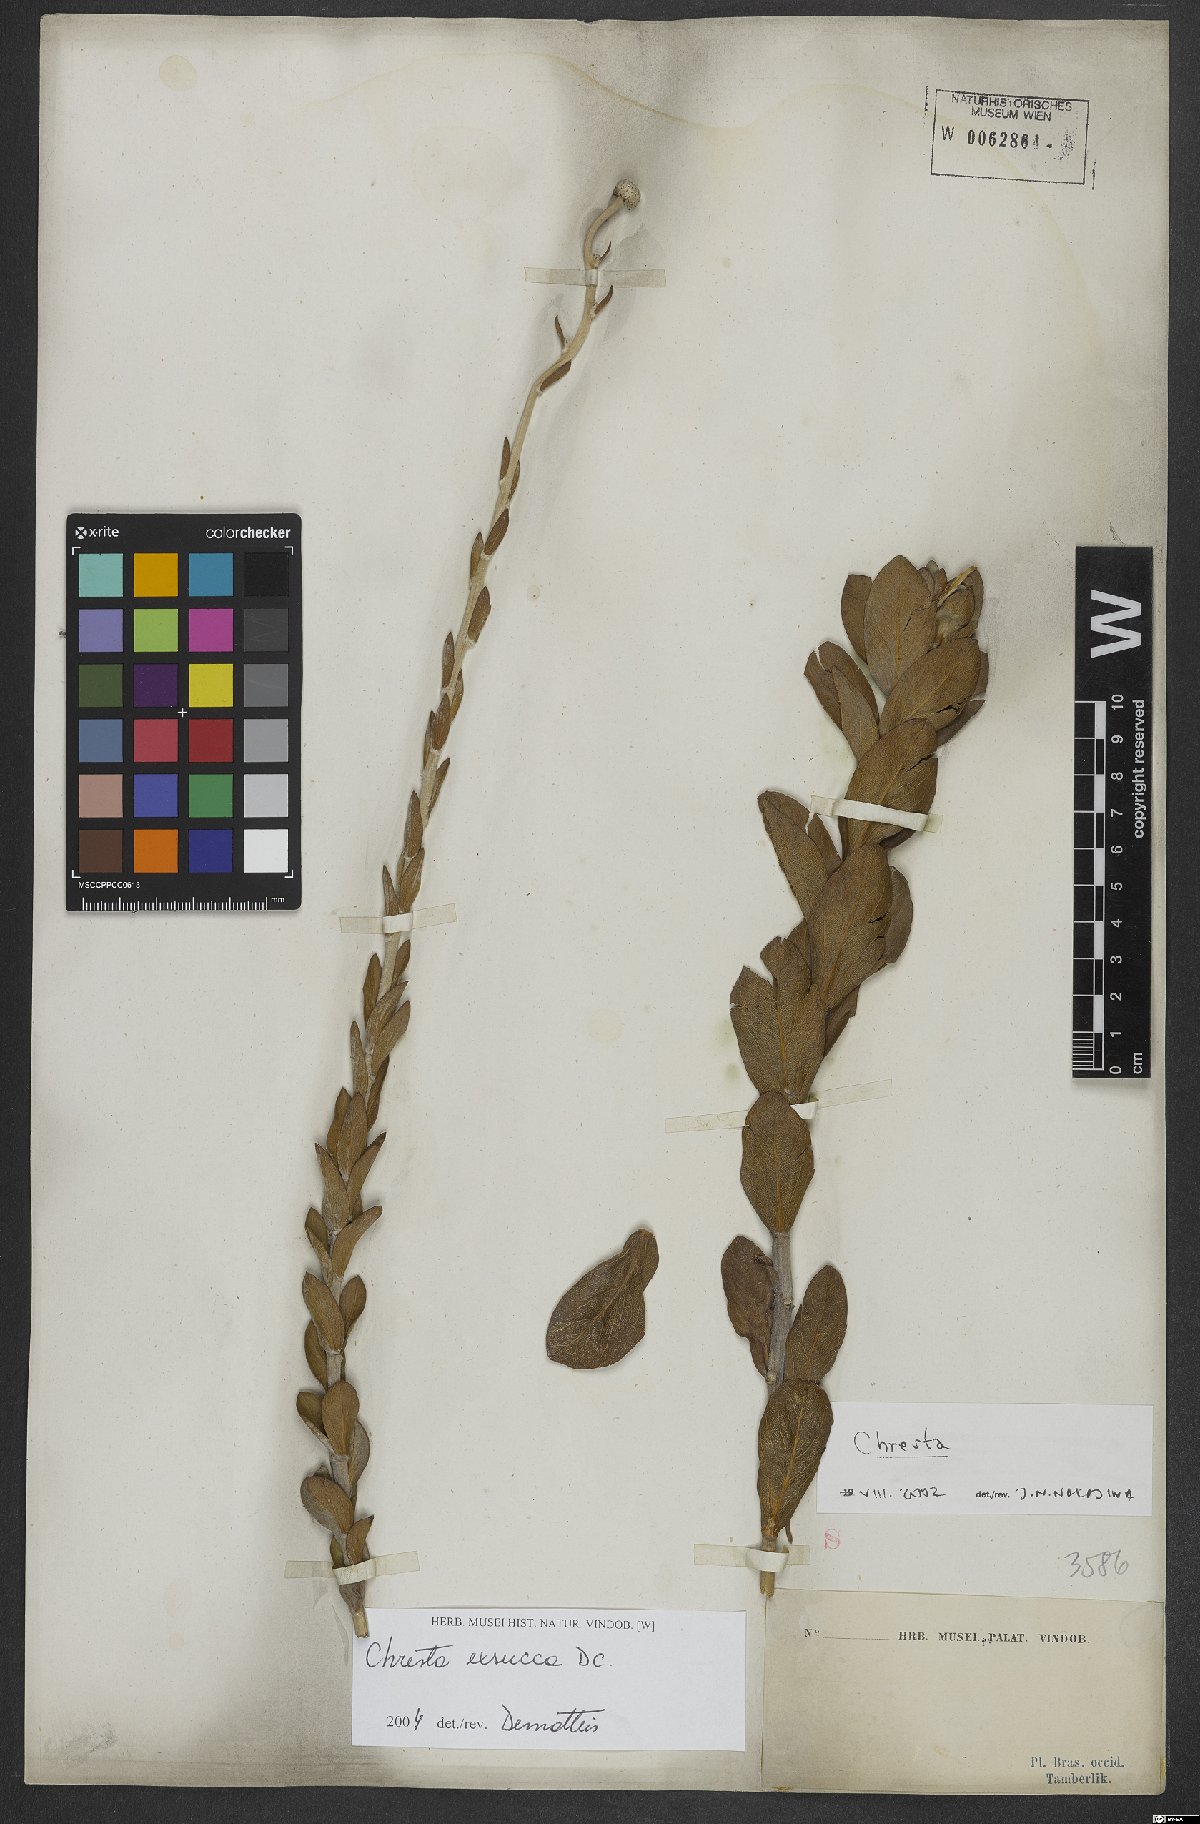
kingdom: Plantae
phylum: Tracheophyta
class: Magnoliopsida
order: Asterales
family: Asteraceae
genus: Chresta
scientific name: Chresta exsucca
